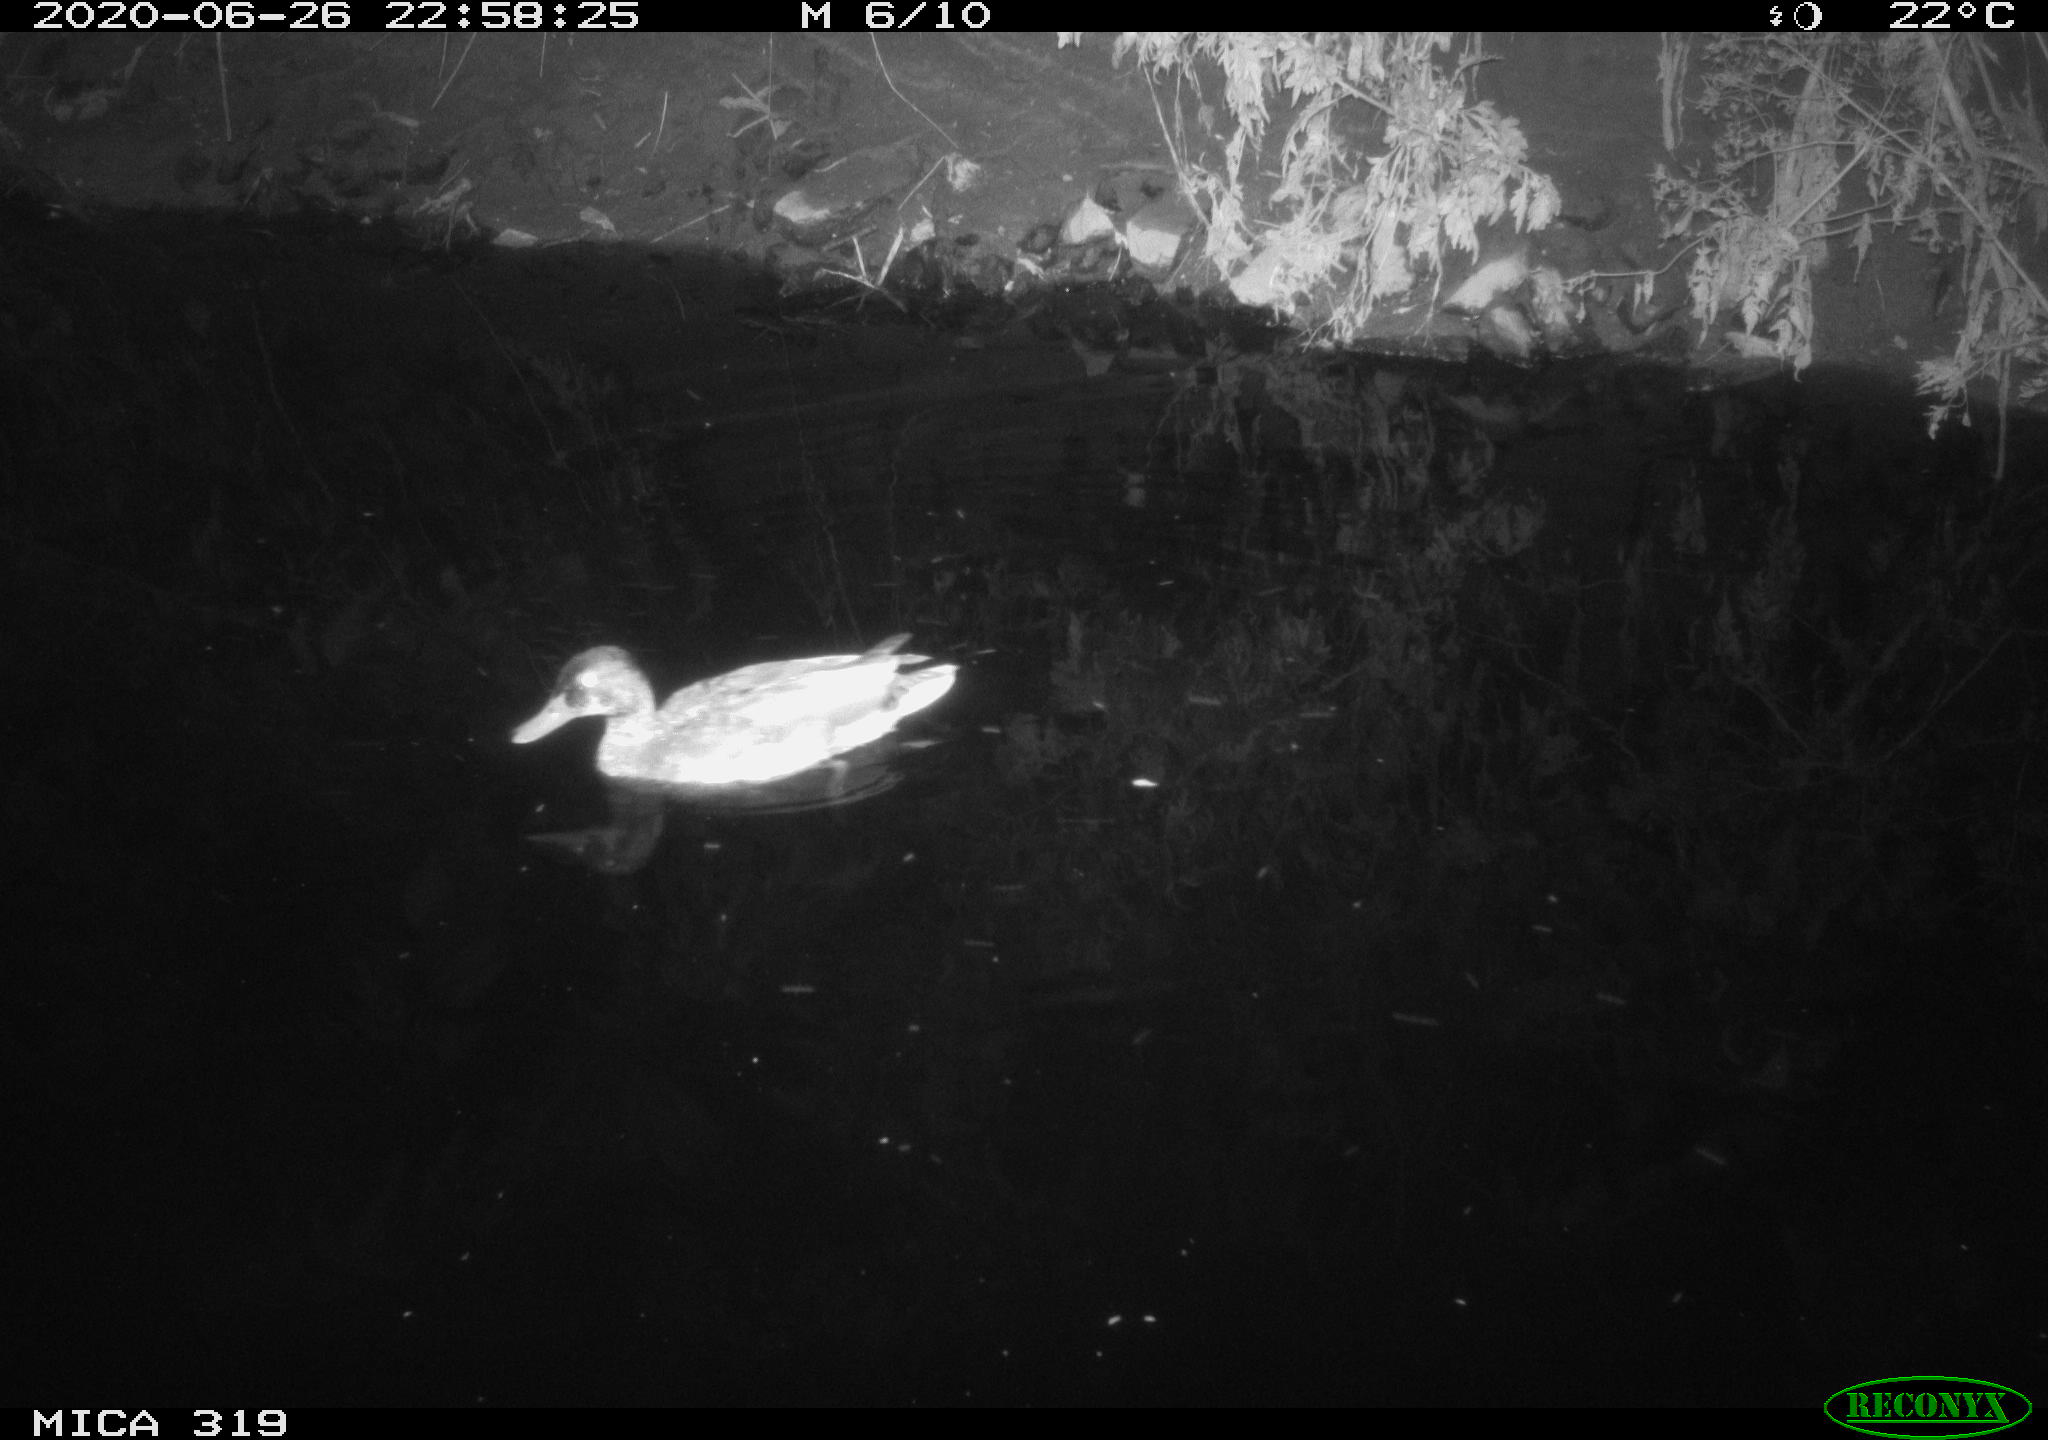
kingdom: Animalia
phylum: Chordata
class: Aves
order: Anseriformes
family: Anatidae
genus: Anas
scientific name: Anas platyrhynchos
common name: Mallard
